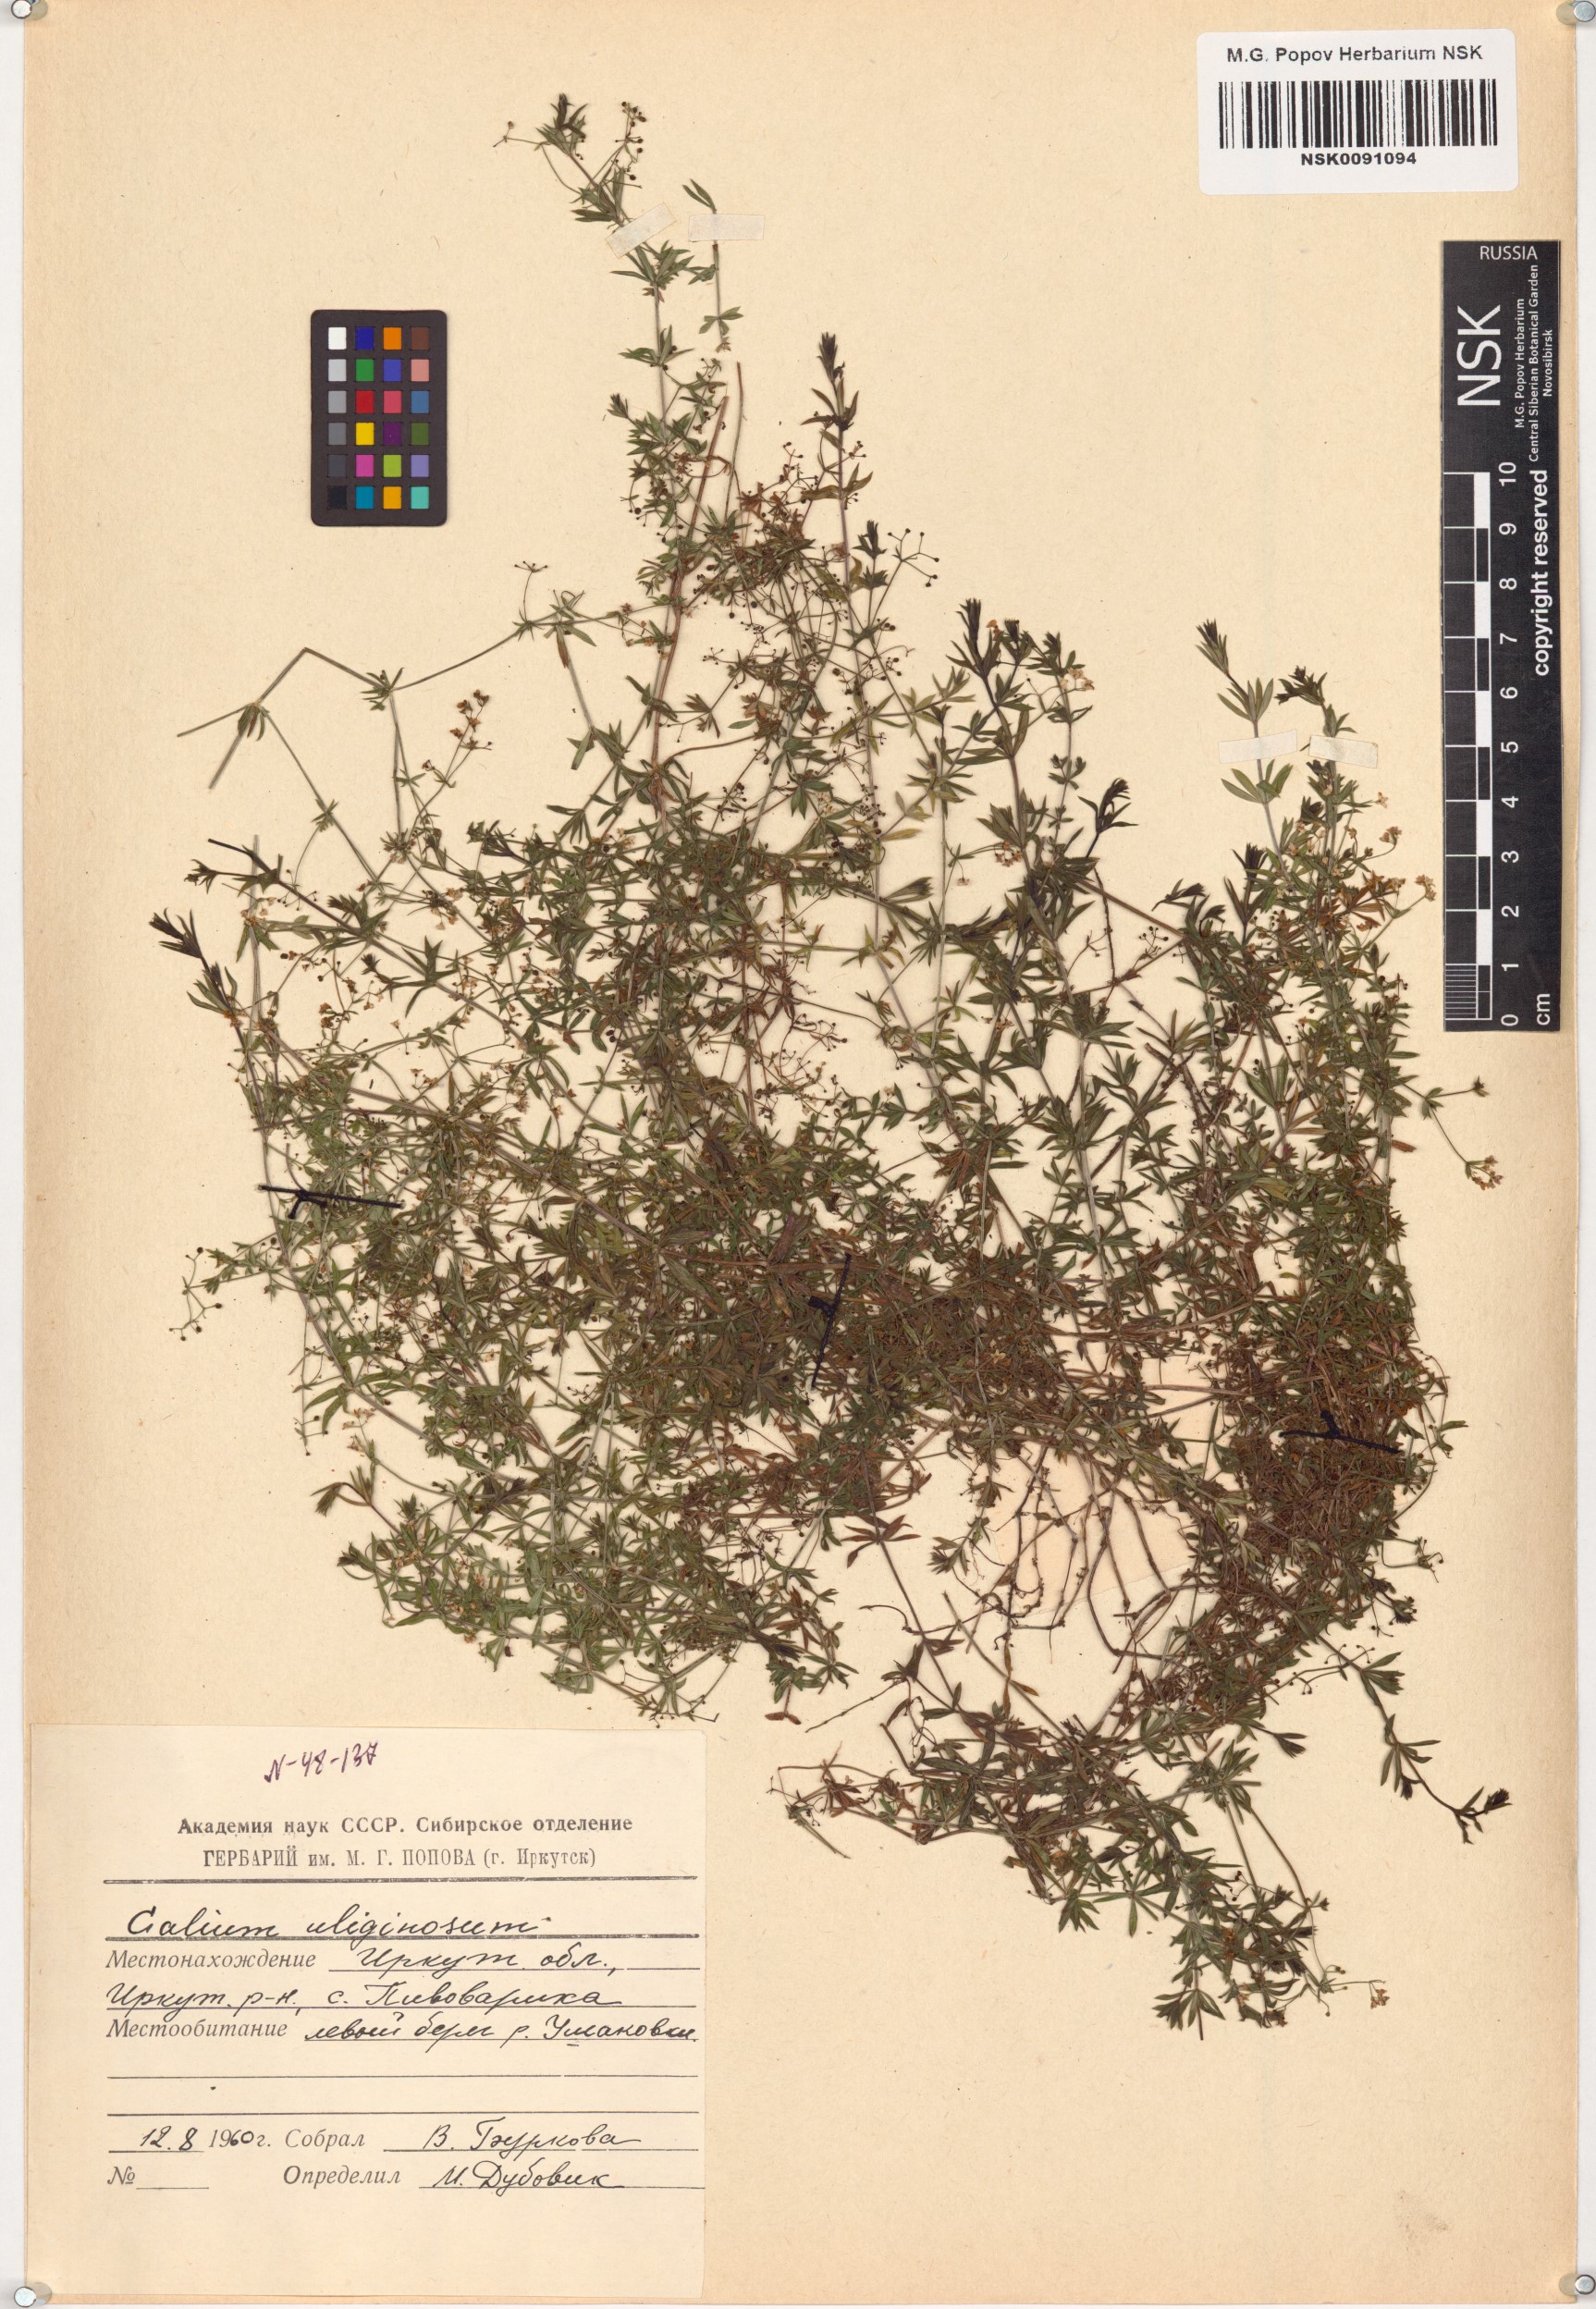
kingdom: Plantae
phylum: Tracheophyta
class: Magnoliopsida
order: Gentianales
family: Rubiaceae
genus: Galium
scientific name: Galium uliginosum
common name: Fen bedstraw
